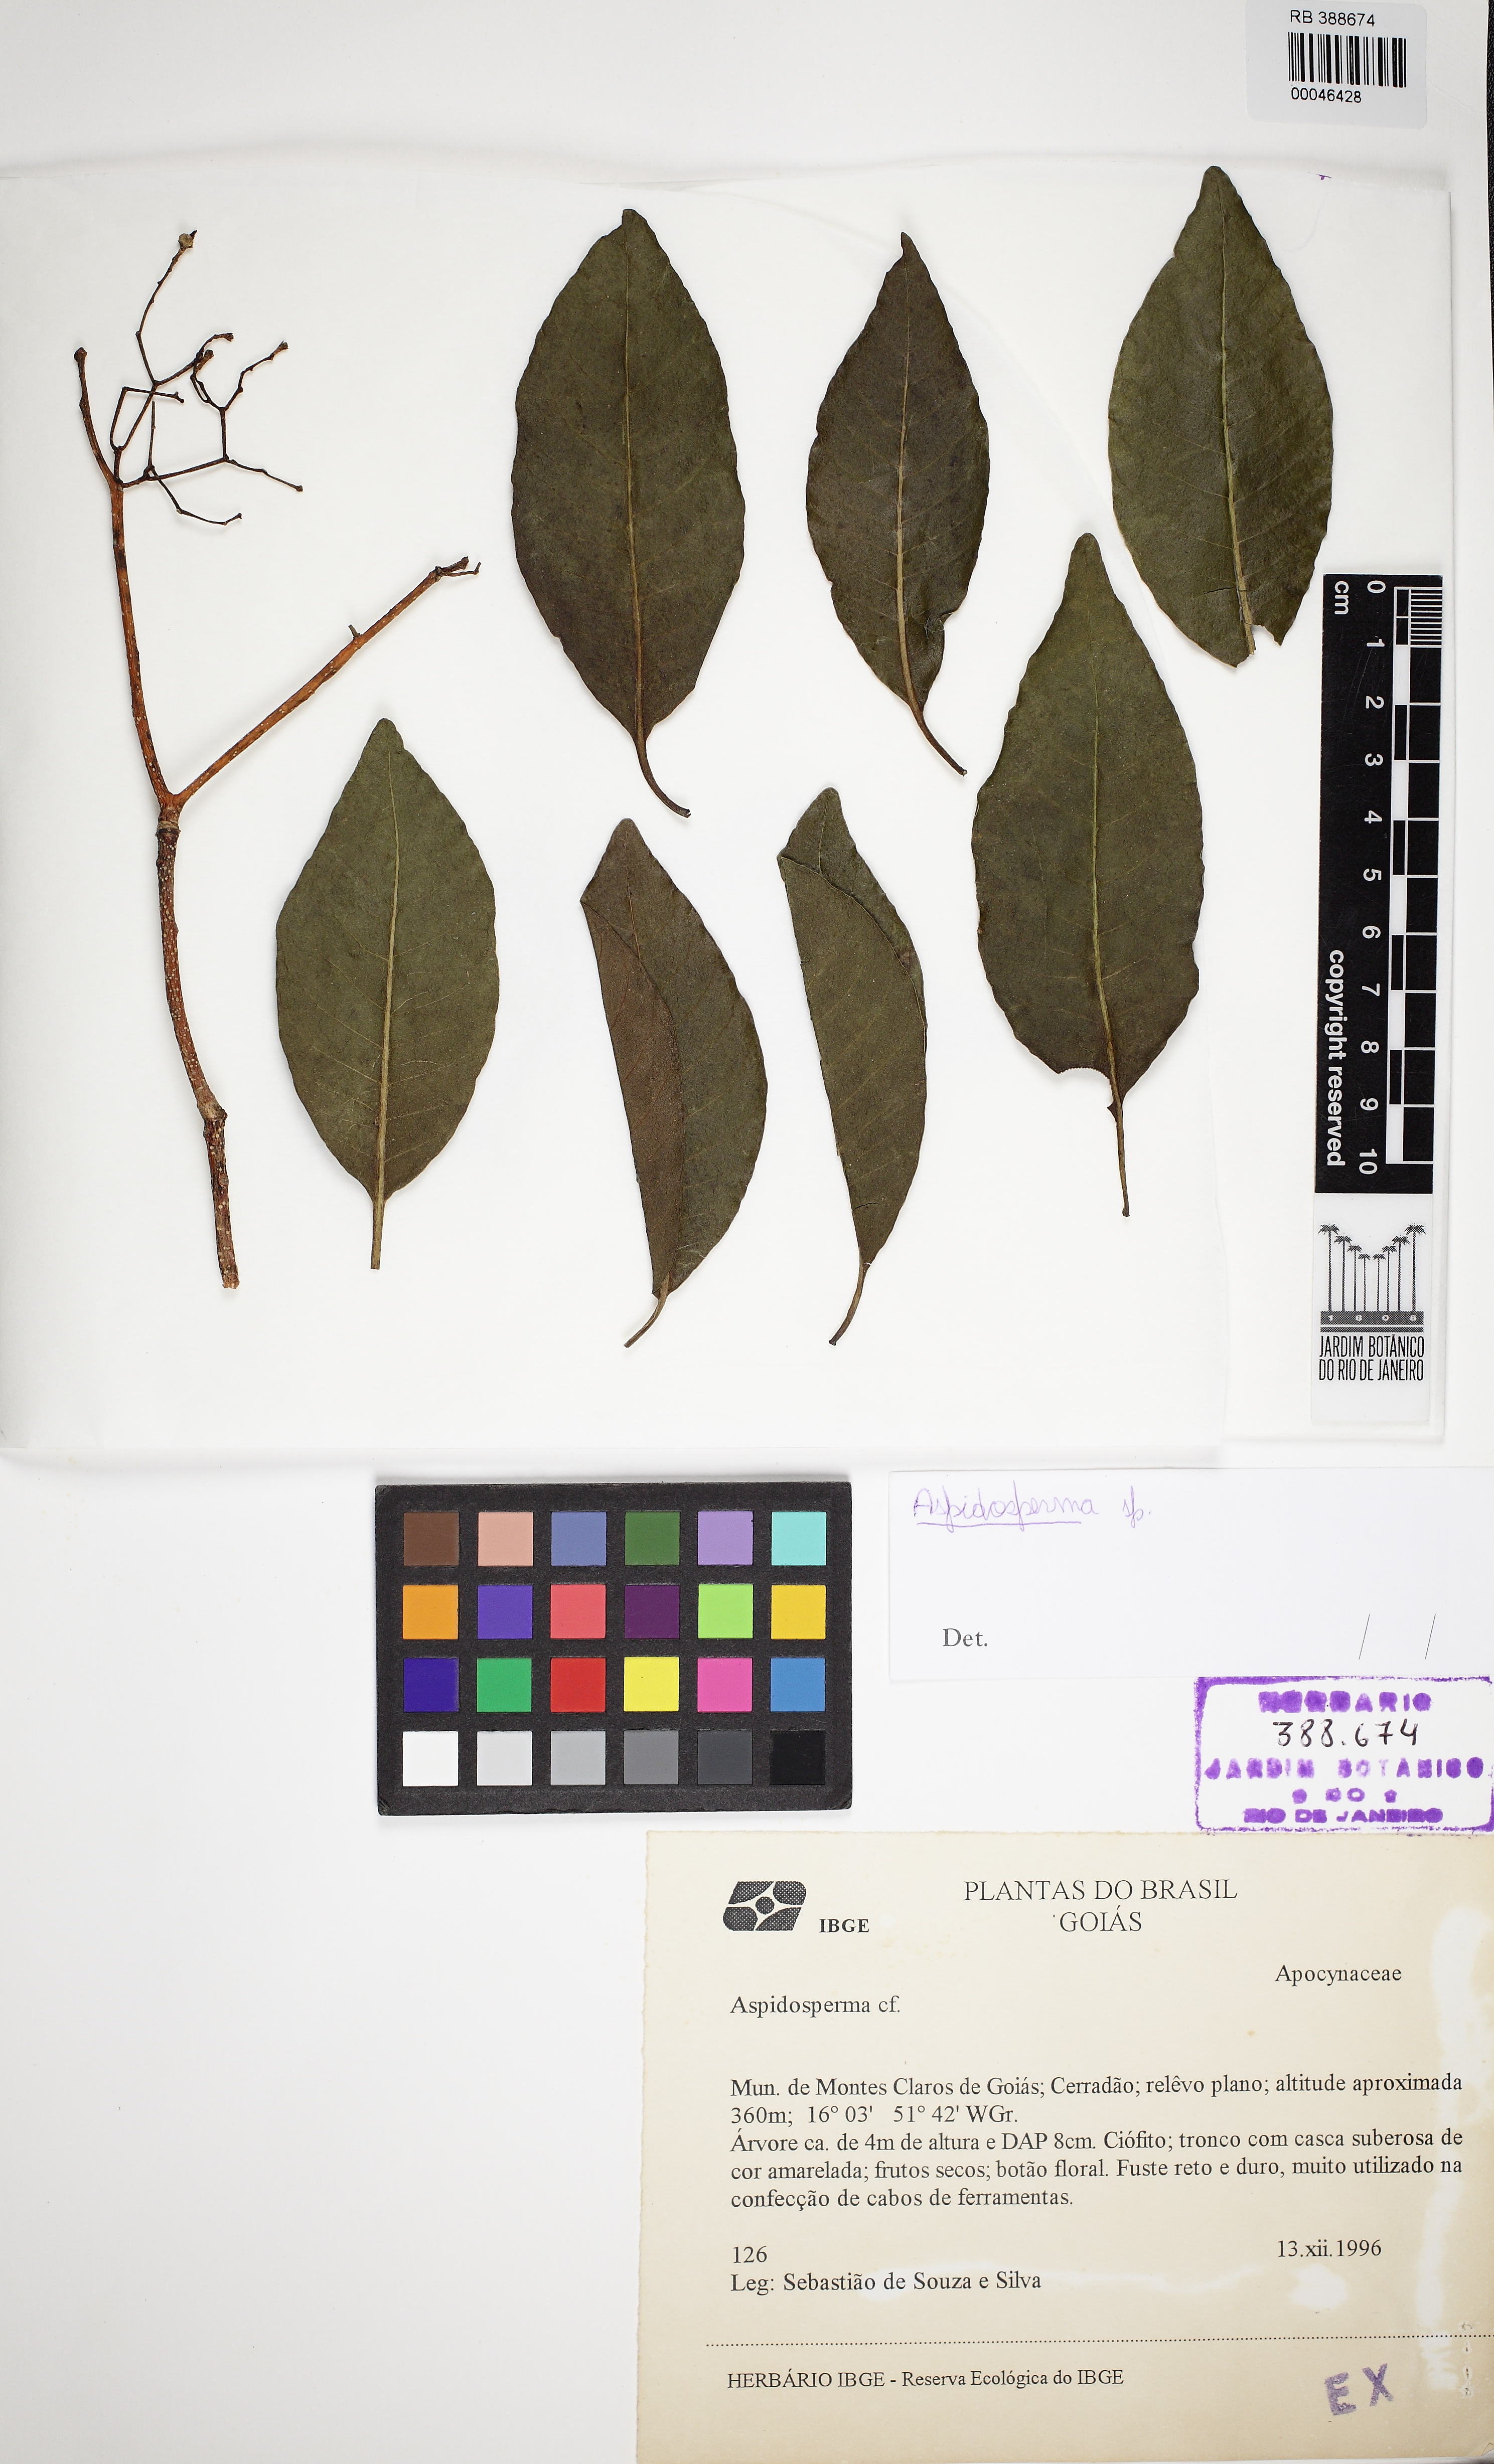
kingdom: Plantae
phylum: Tracheophyta
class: Magnoliopsida
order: Gentianales
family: Apocynaceae
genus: Aspidosperma
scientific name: Aspidosperma cylindrocarpon
